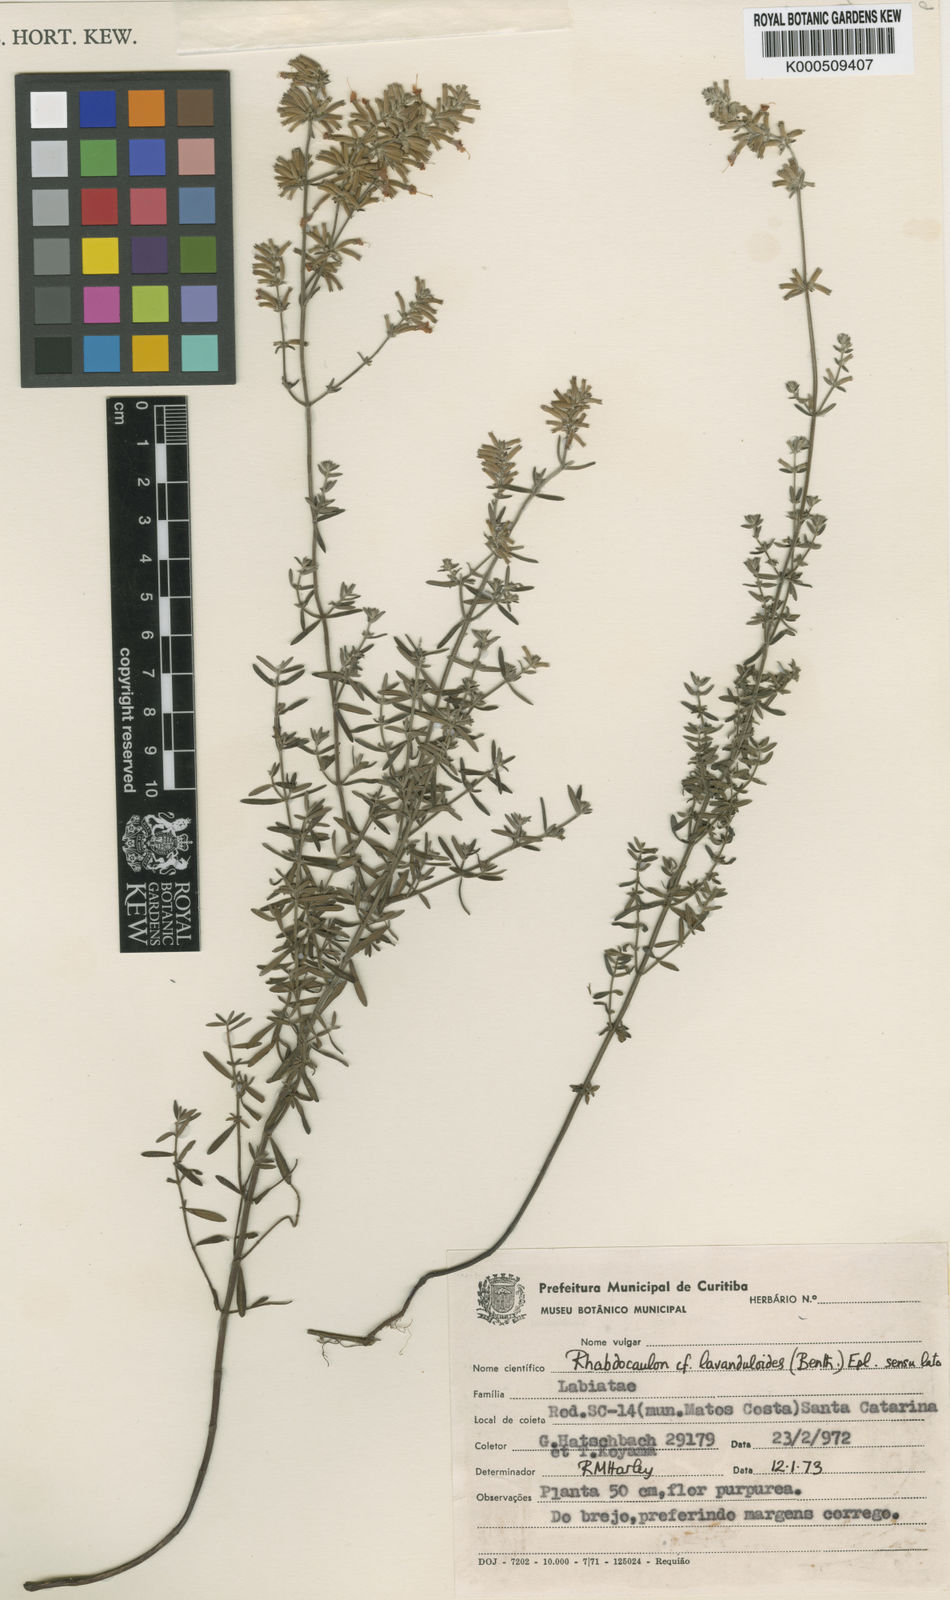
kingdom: Plantae
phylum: Tracheophyta
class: Magnoliopsida
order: Lamiales
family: Lamiaceae
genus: Rhabdocaulon
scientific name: Rhabdocaulon lavanduloides
